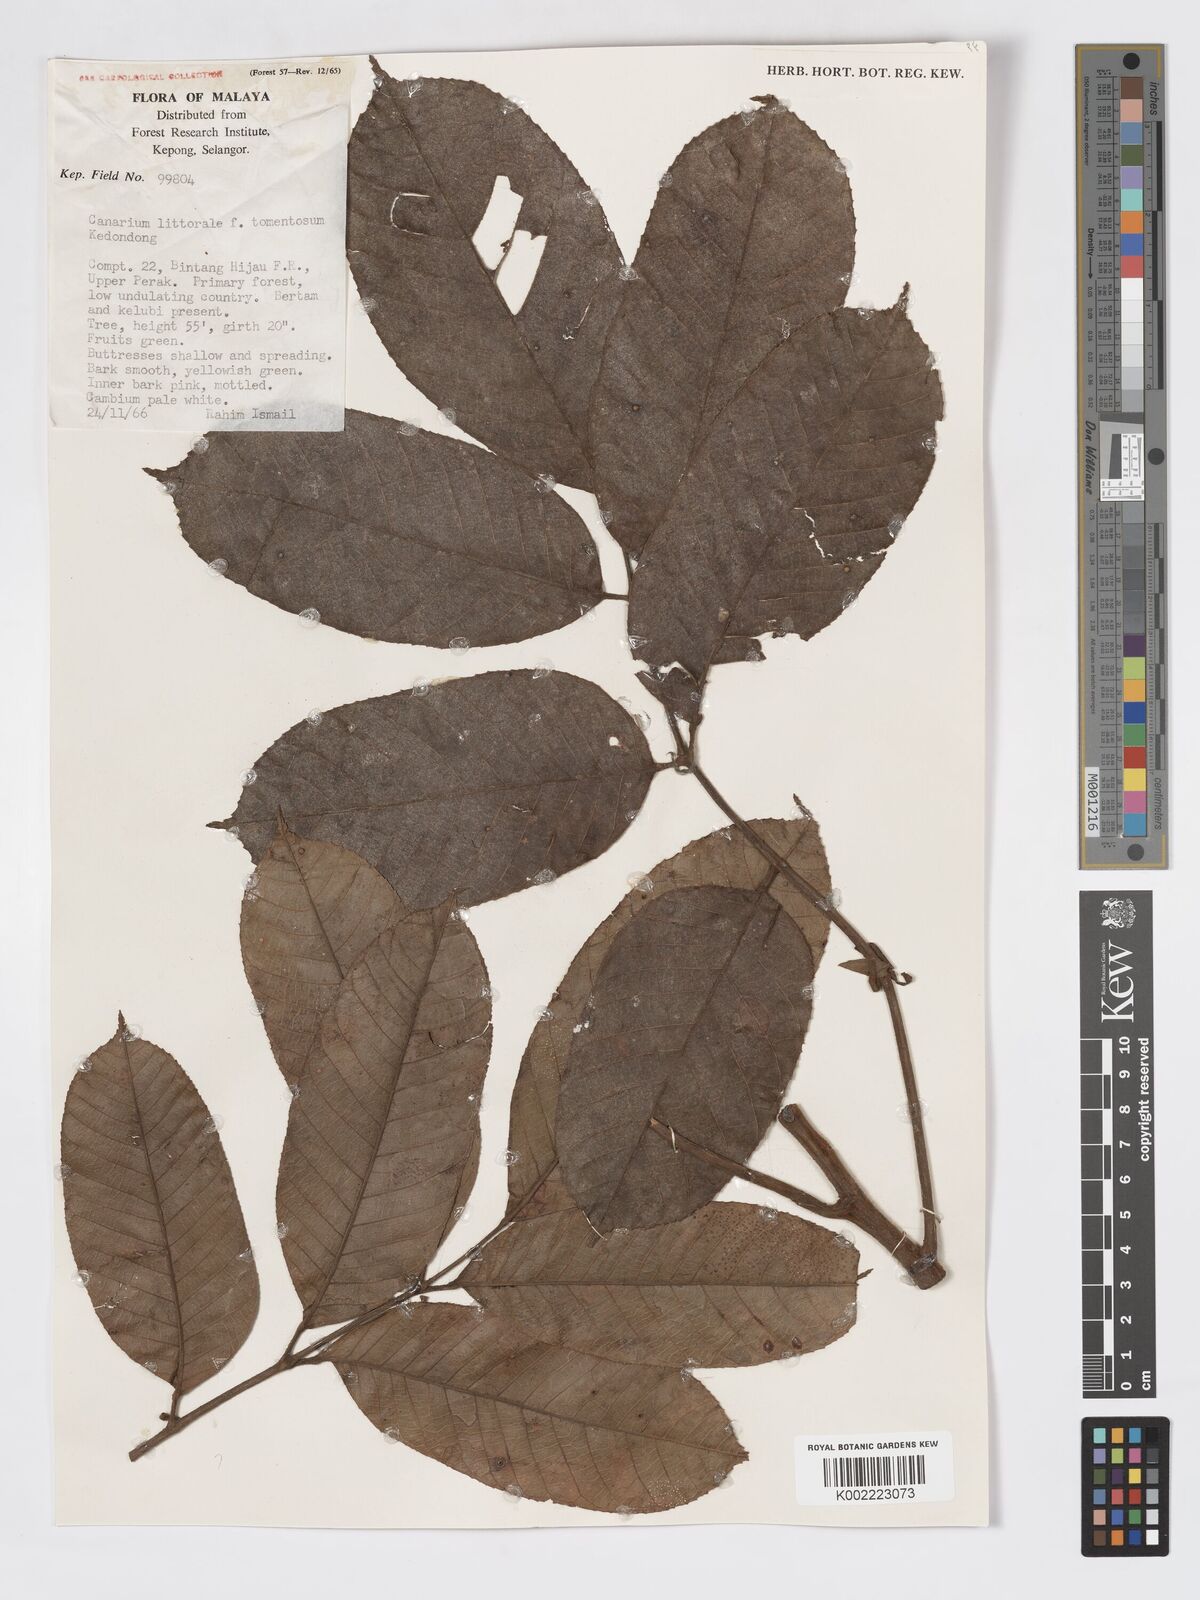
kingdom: Plantae
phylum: Tracheophyta
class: Magnoliopsida
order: Sapindales
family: Burseraceae
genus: Canarium
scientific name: Canarium littorale
